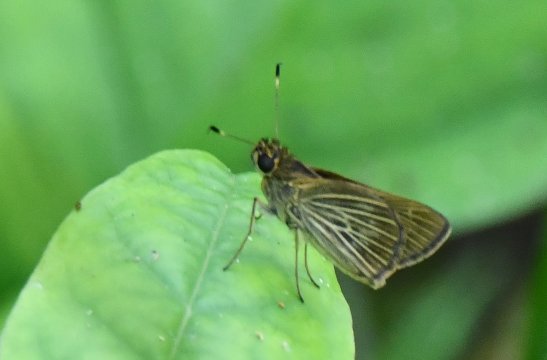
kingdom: Animalia
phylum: Arthropoda
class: Insecta
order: Lepidoptera
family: Hesperiidae
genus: Vehilius
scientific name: Vehilius stictomenes
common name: Pasture Skipper
